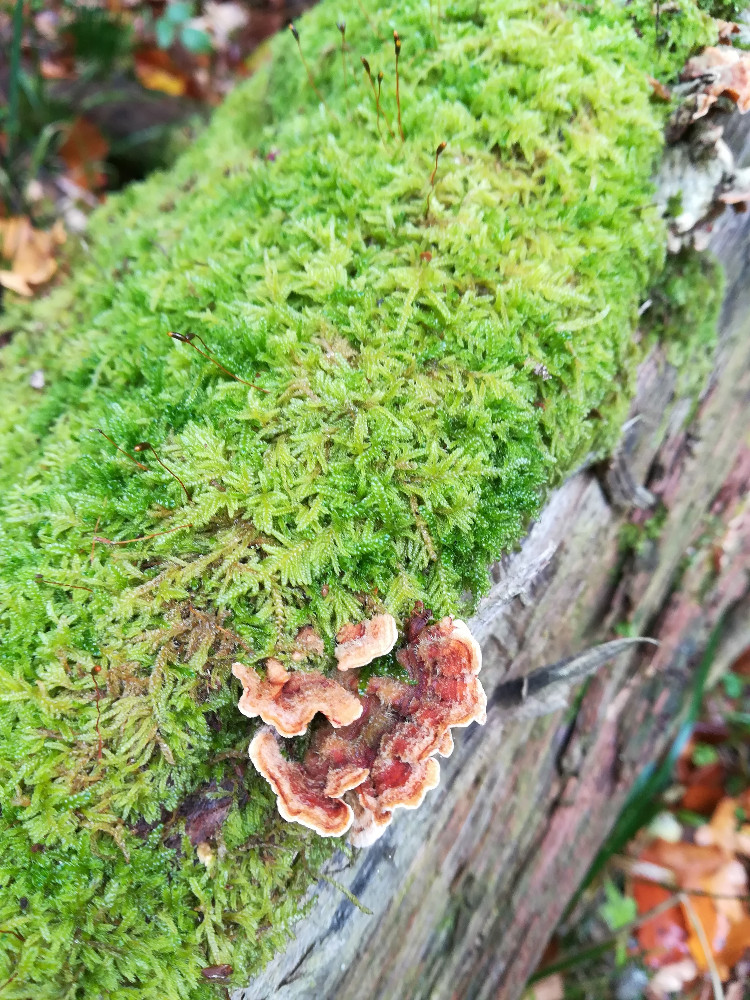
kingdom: Fungi
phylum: Basidiomycota
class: Agaricomycetes
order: Russulales
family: Stereaceae
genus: Stereum
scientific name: Stereum hirsutum
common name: håret lædersvamp
